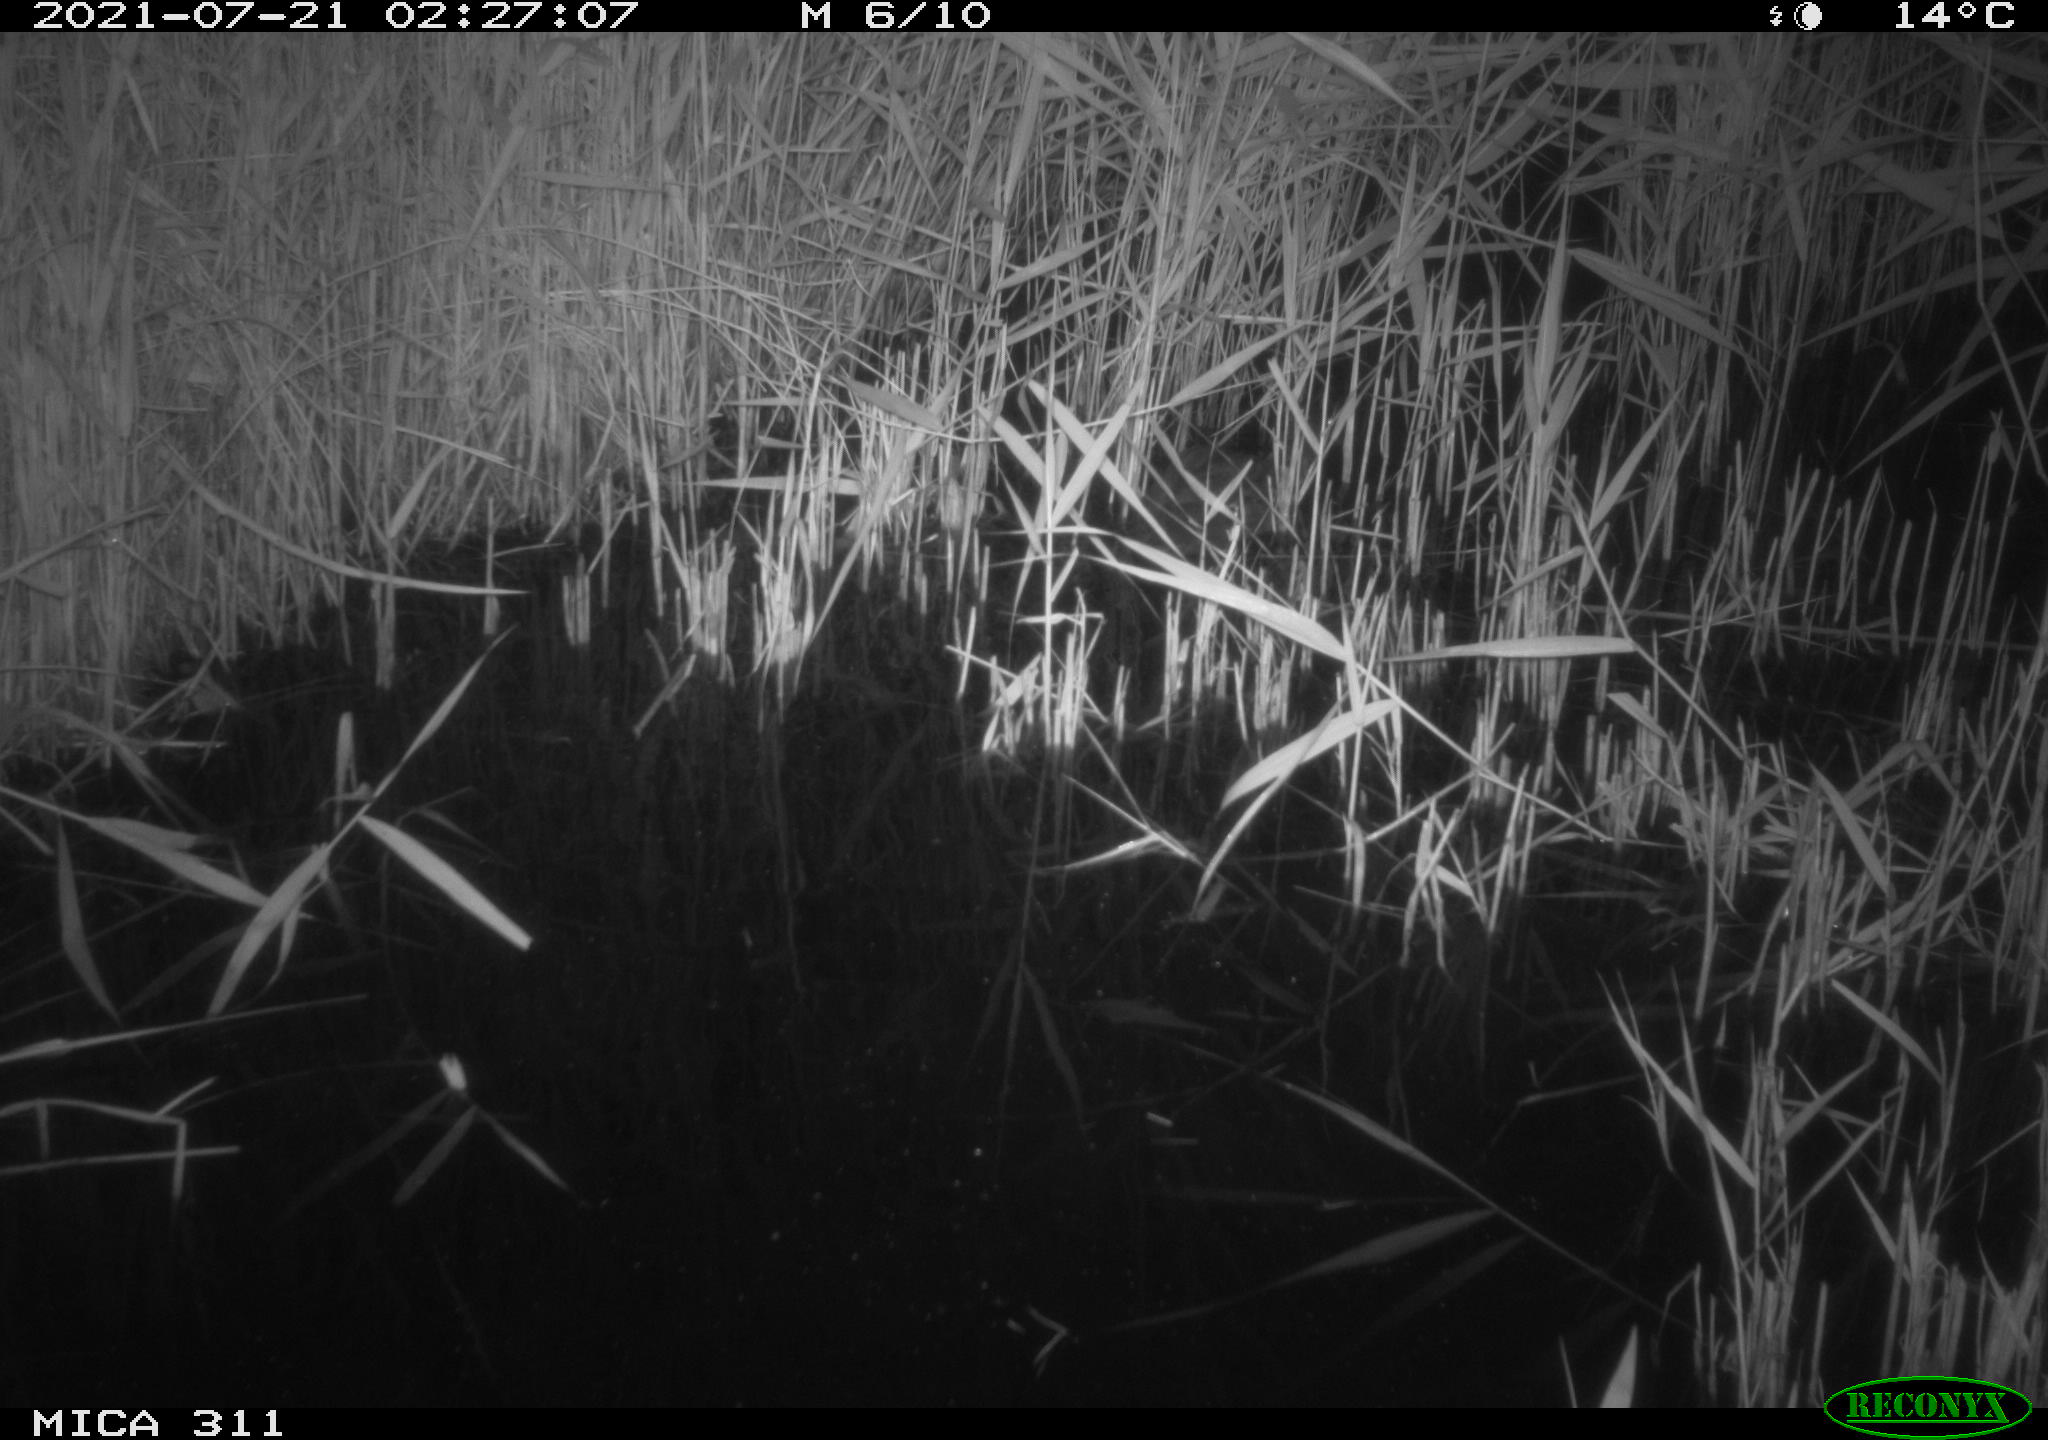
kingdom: Animalia
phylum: Chordata
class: Aves
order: Anseriformes
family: Anatidae
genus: Anas
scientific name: Anas platyrhynchos
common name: Mallard
